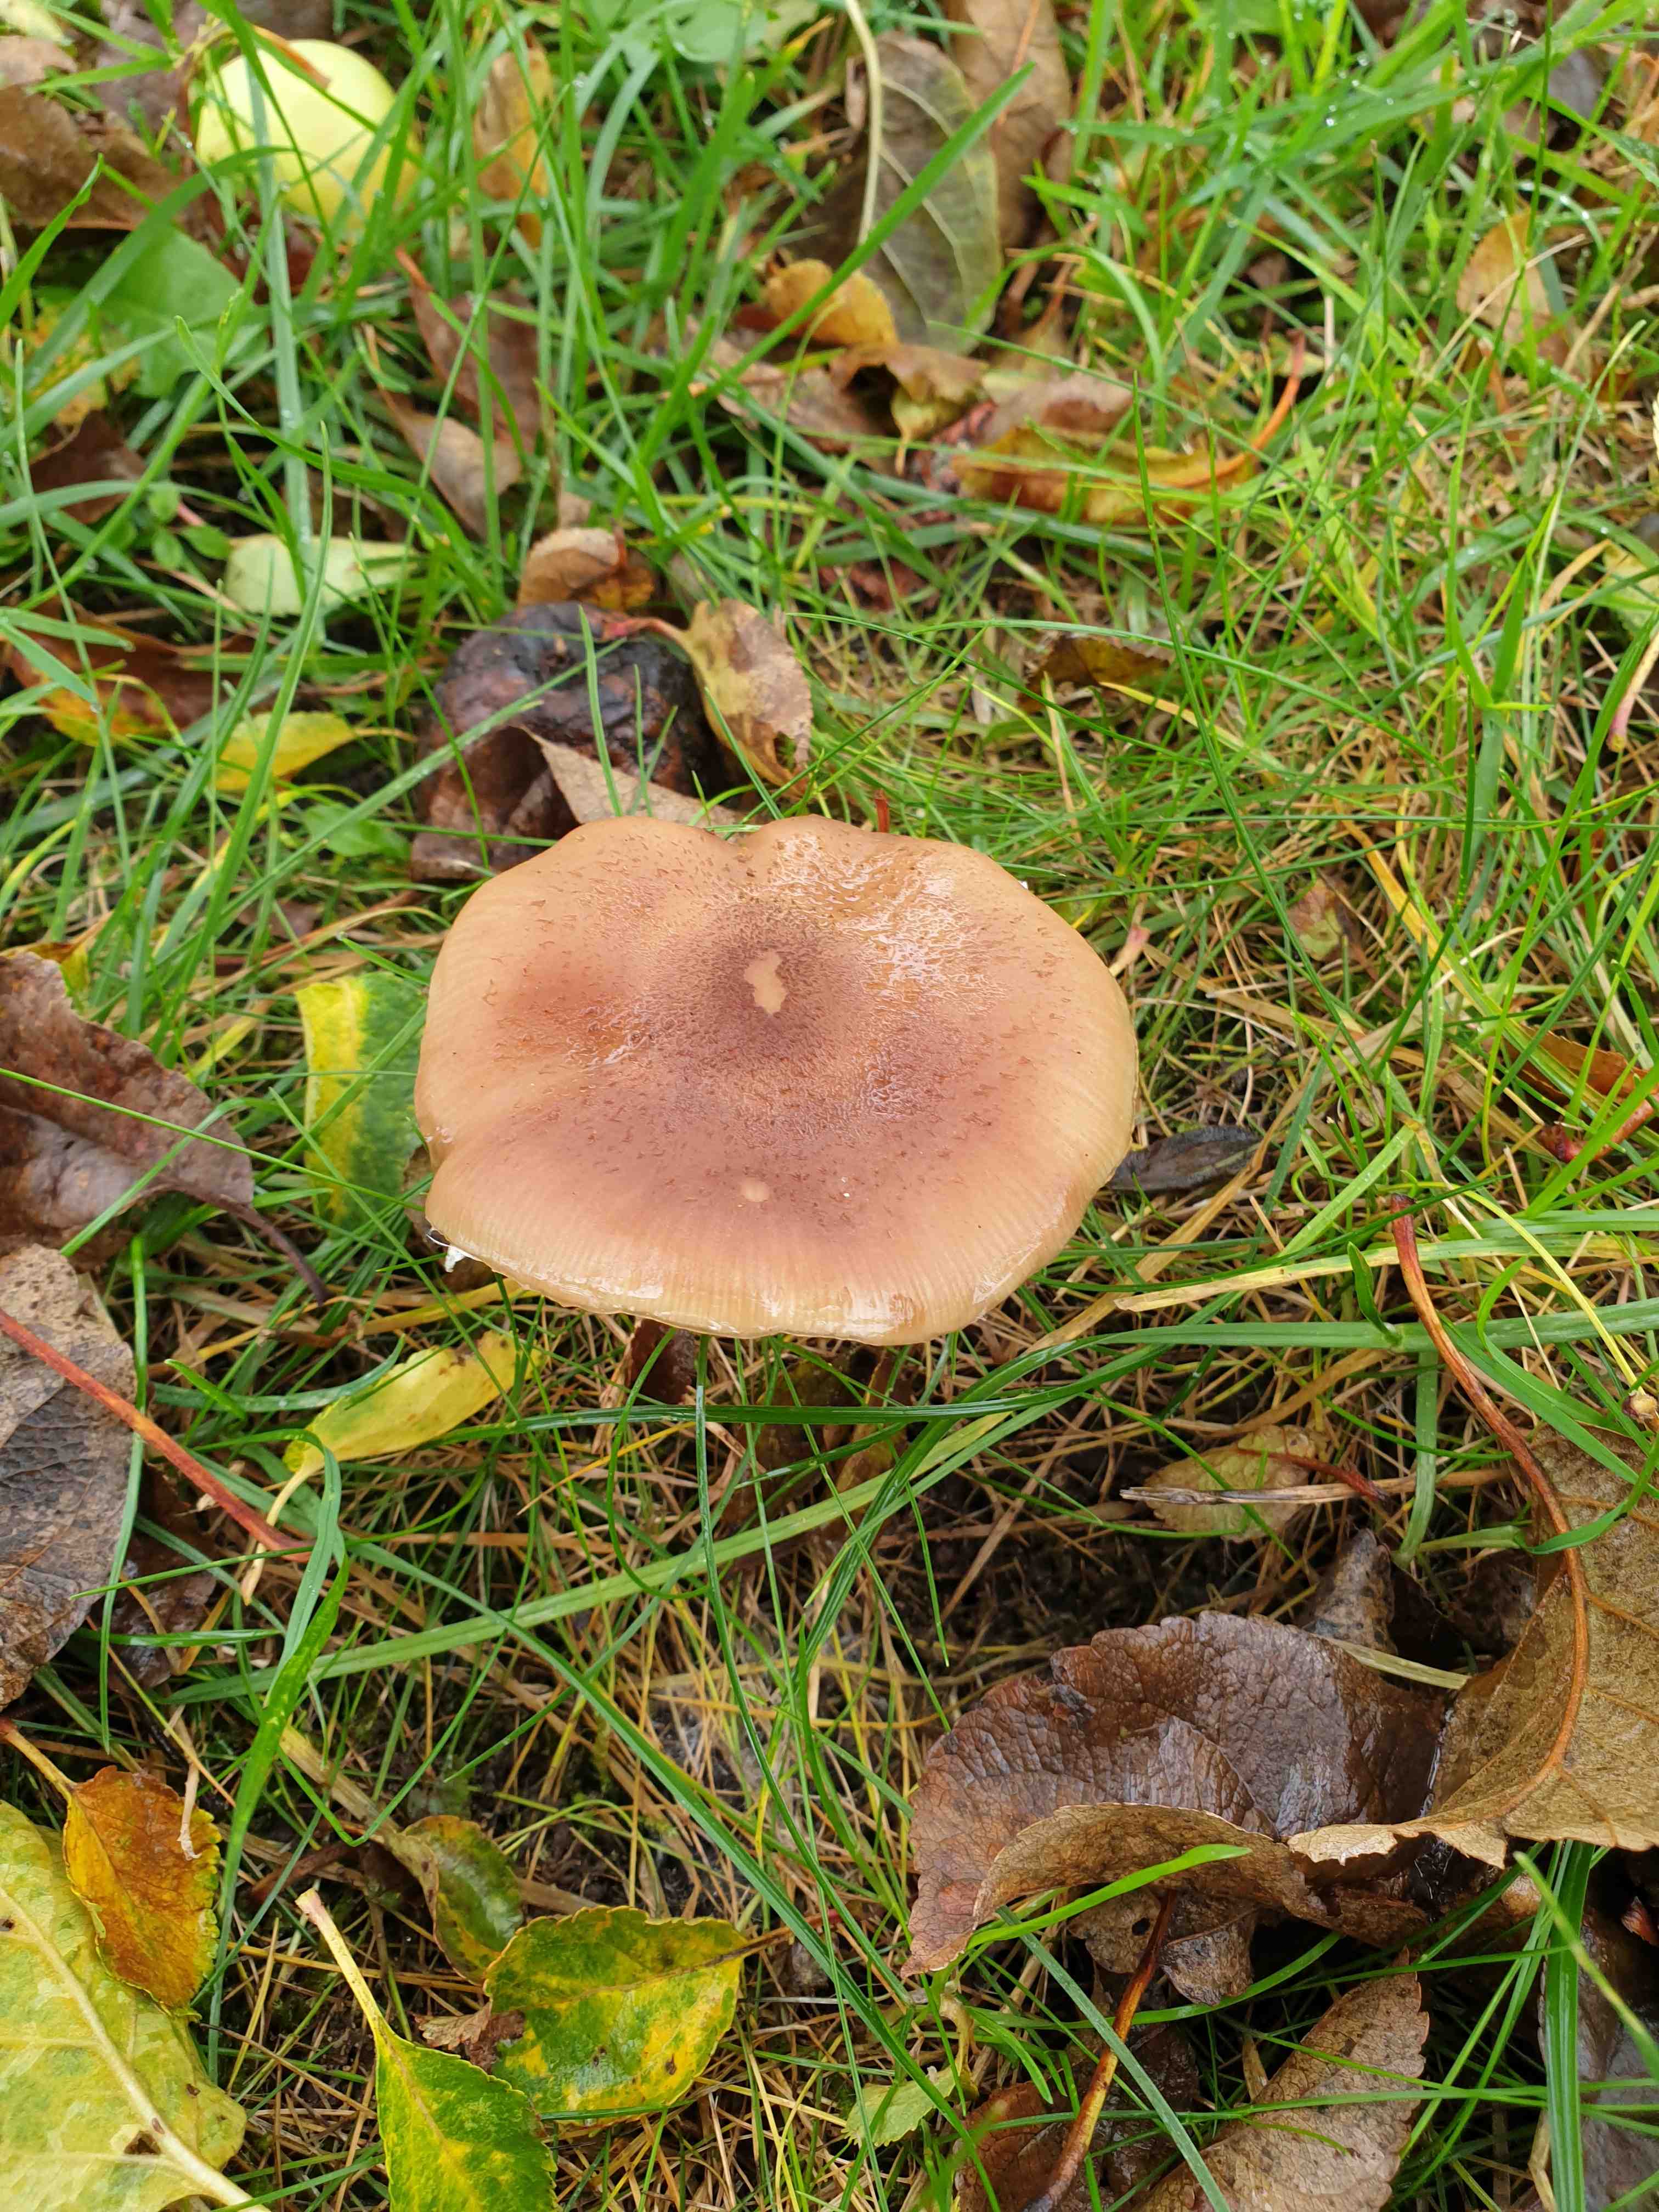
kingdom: Fungi
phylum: Basidiomycota
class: Agaricomycetes
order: Agaricales
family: Physalacriaceae
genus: Armillaria
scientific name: Armillaria
